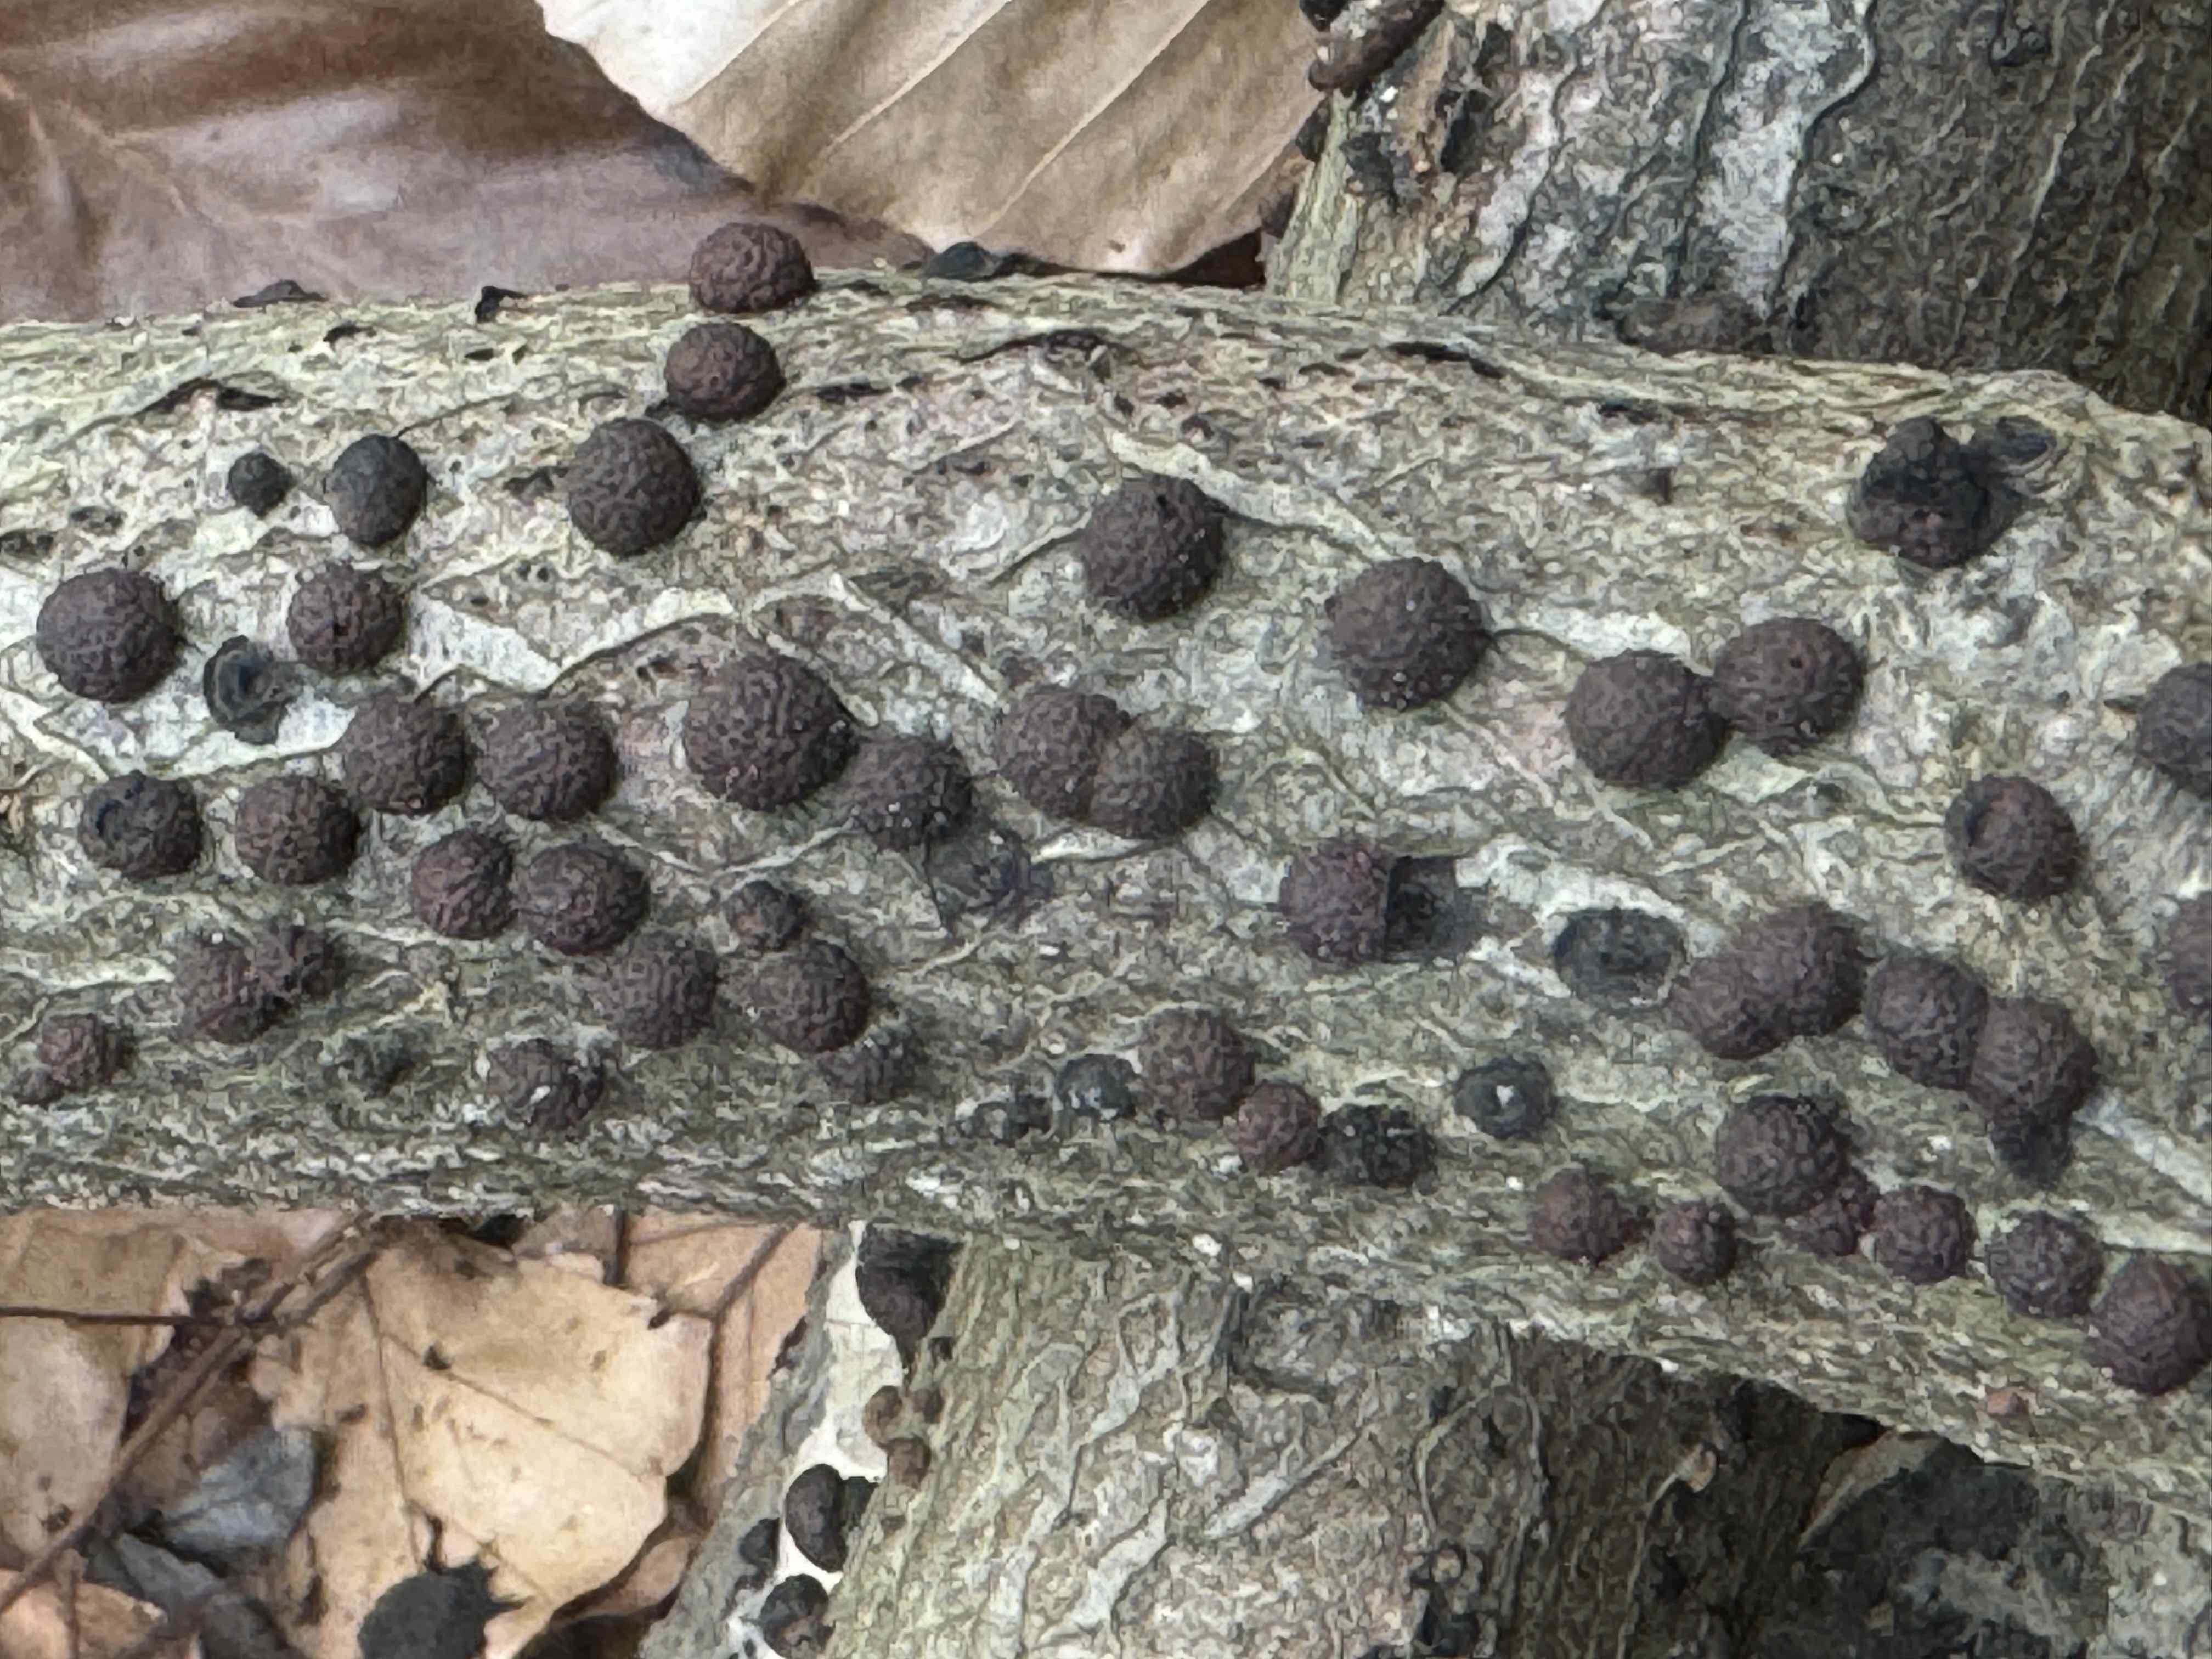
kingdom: Fungi
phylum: Ascomycota
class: Sordariomycetes
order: Xylariales
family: Hypoxylaceae
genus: Hypoxylon
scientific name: Hypoxylon fragiforme
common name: kuljordbær
